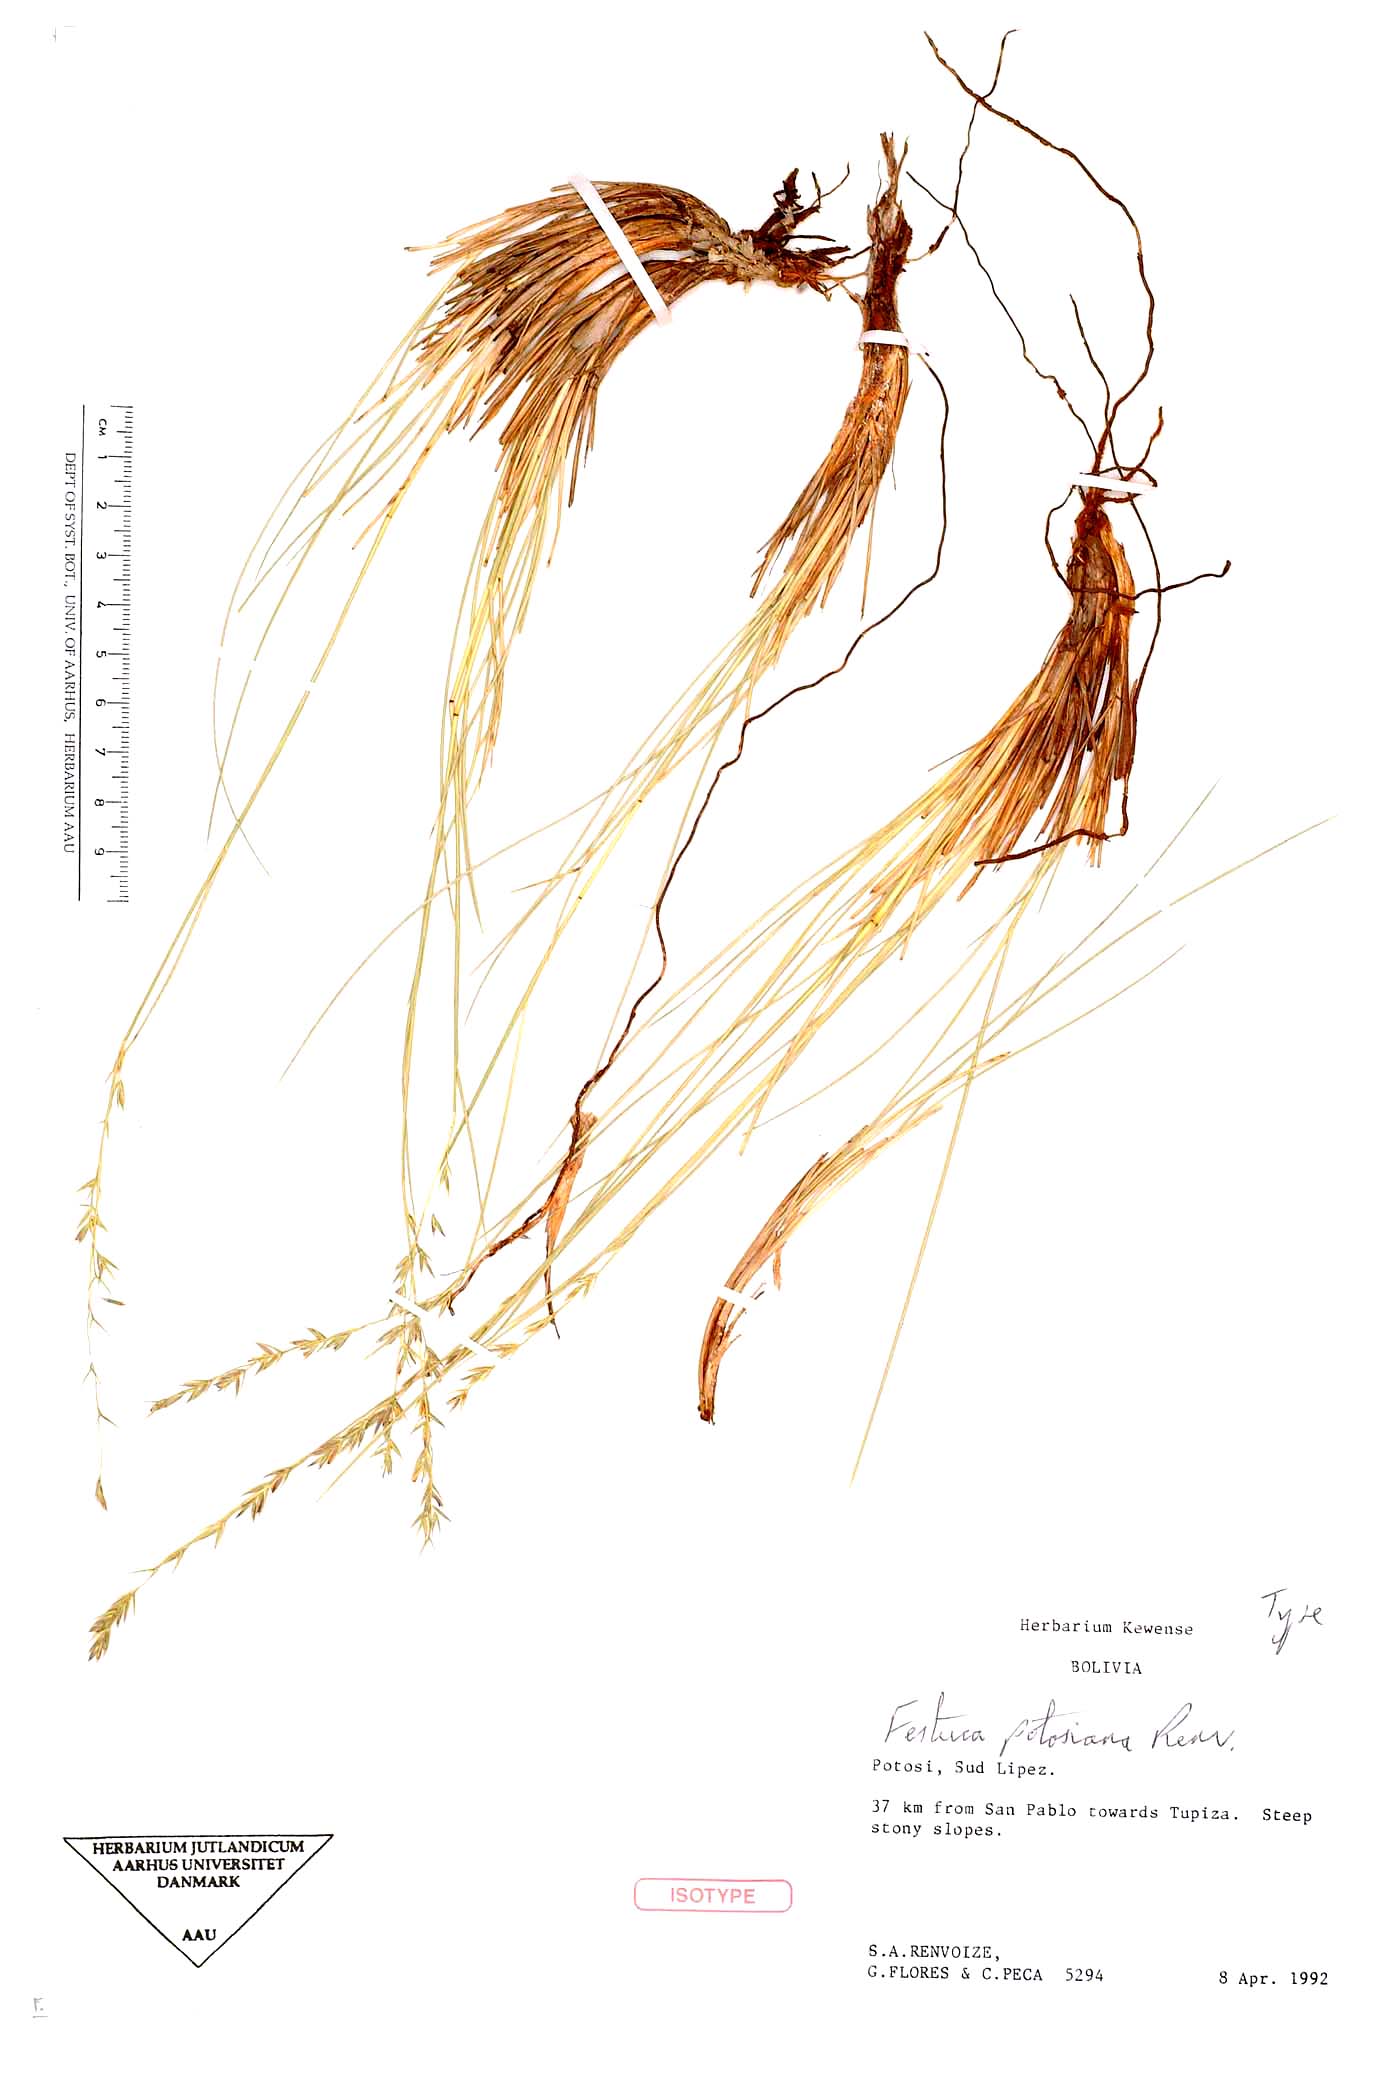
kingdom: Plantae
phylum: Tracheophyta
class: Liliopsida
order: Poales
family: Poaceae
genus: Festuca
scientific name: Festuca dissitiflora
